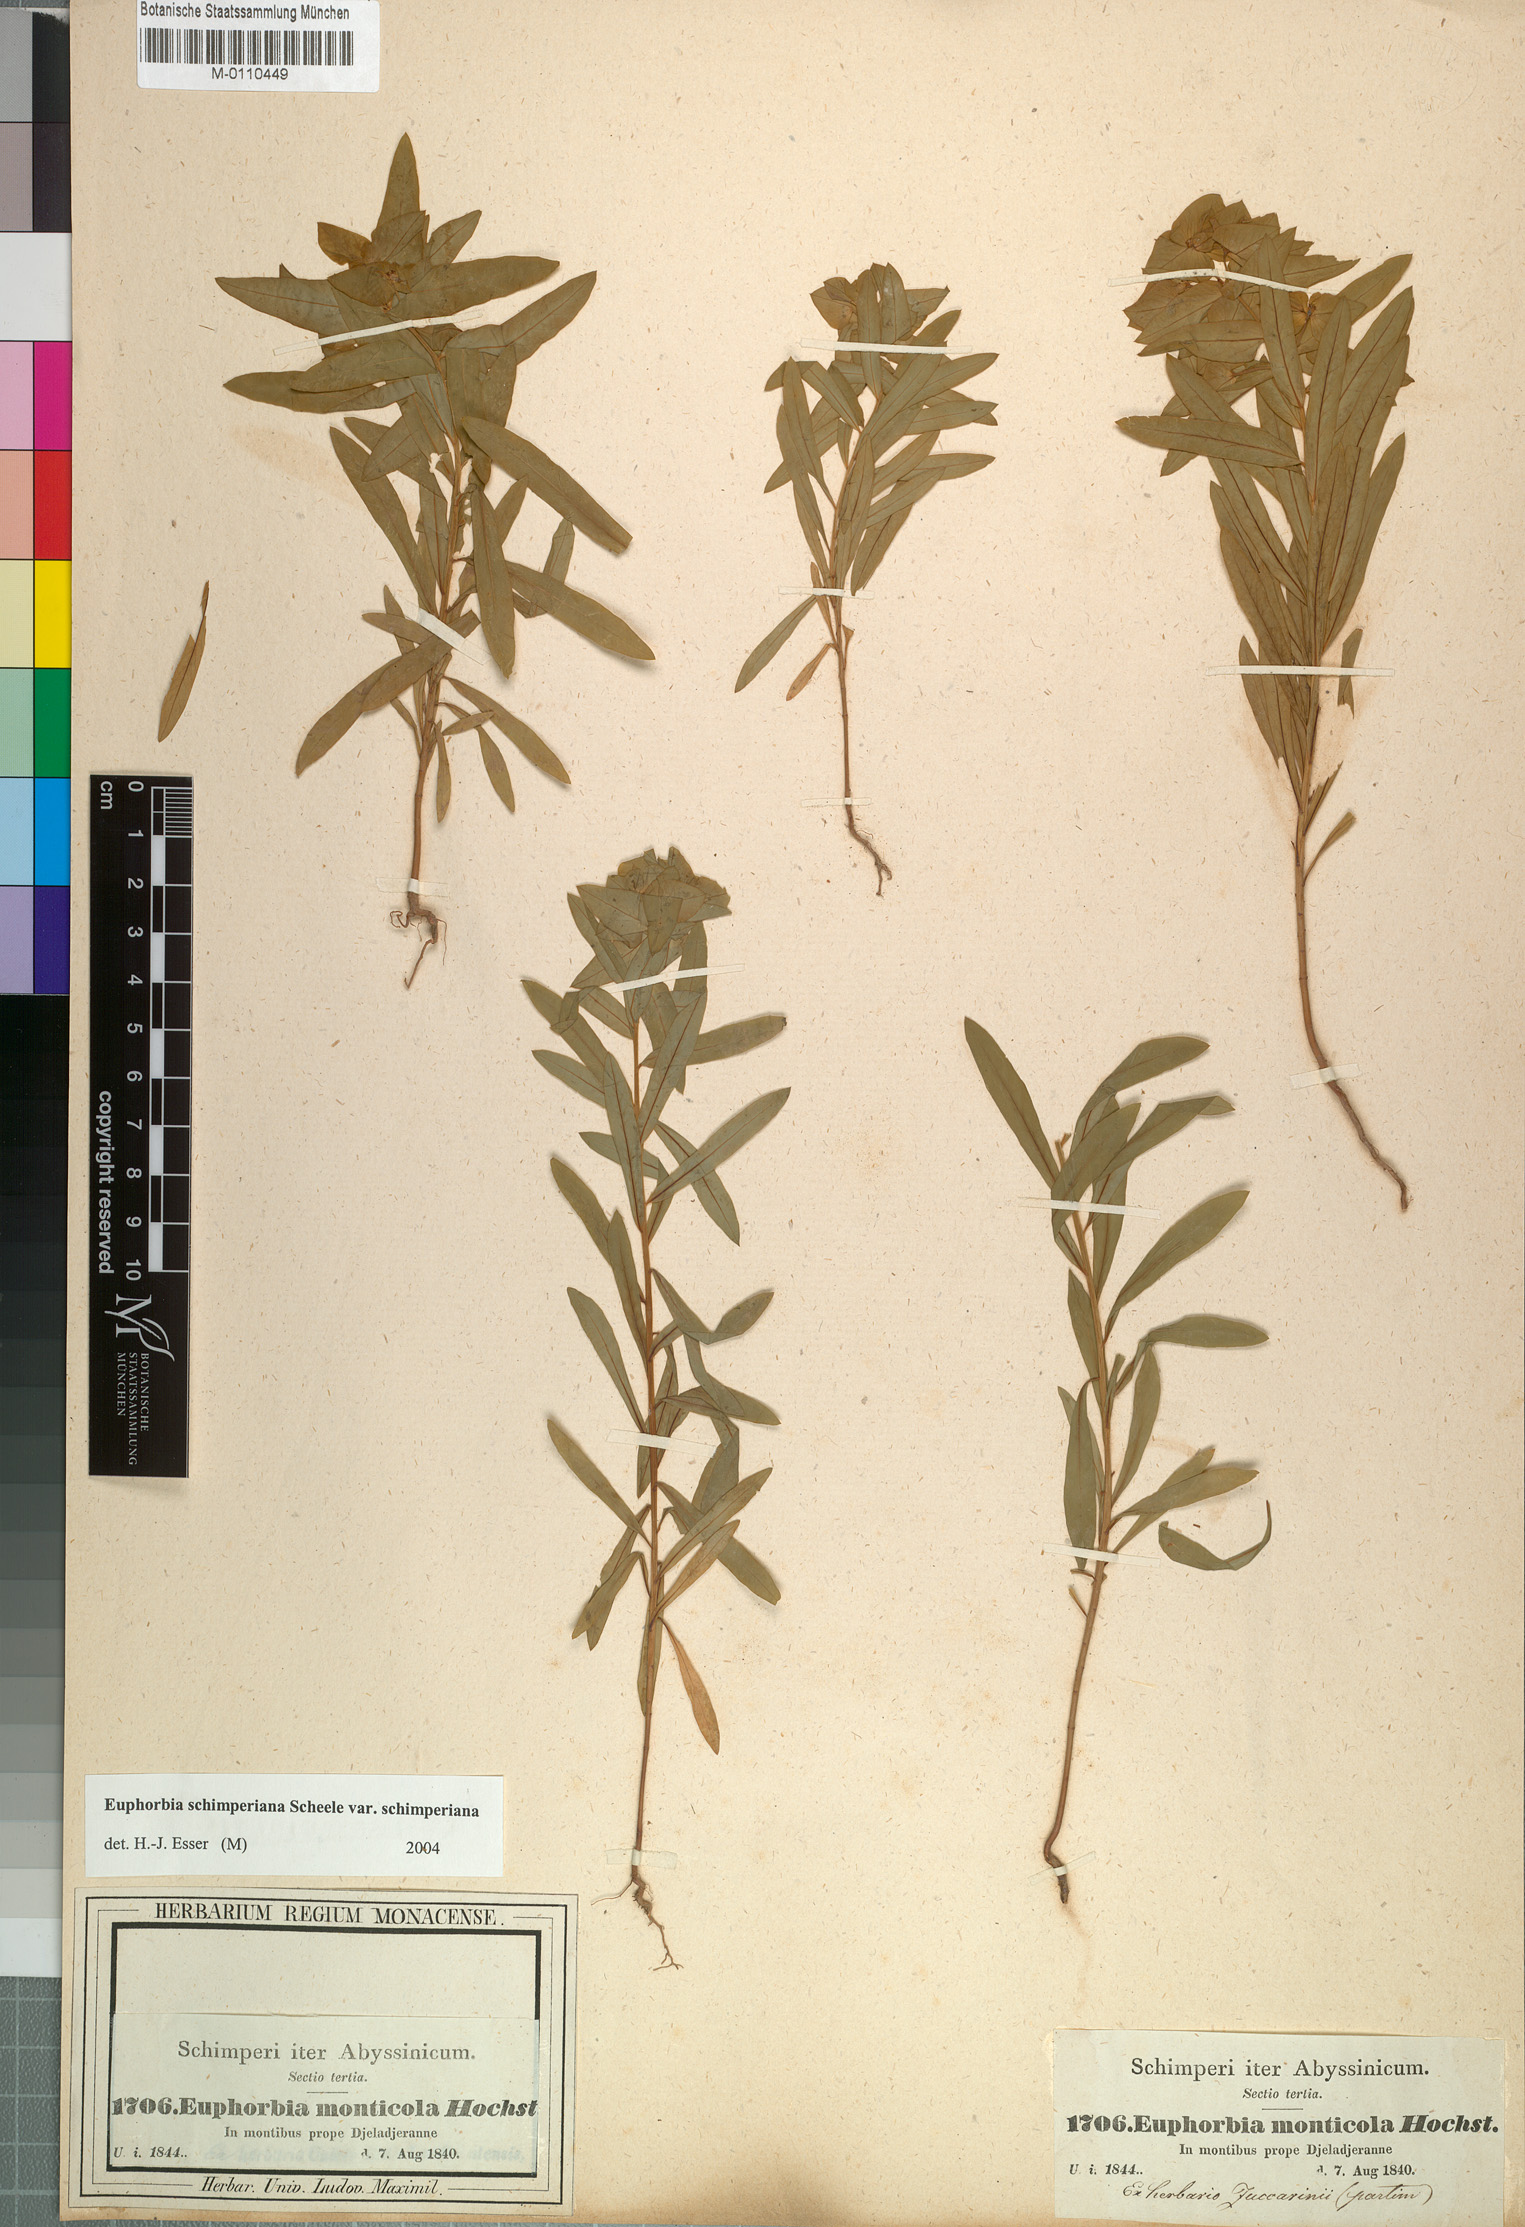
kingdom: Plantae
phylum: Tracheophyta
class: Magnoliopsida
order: Malpighiales
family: Euphorbiaceae
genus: Euphorbia
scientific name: Euphorbia schimperiana
